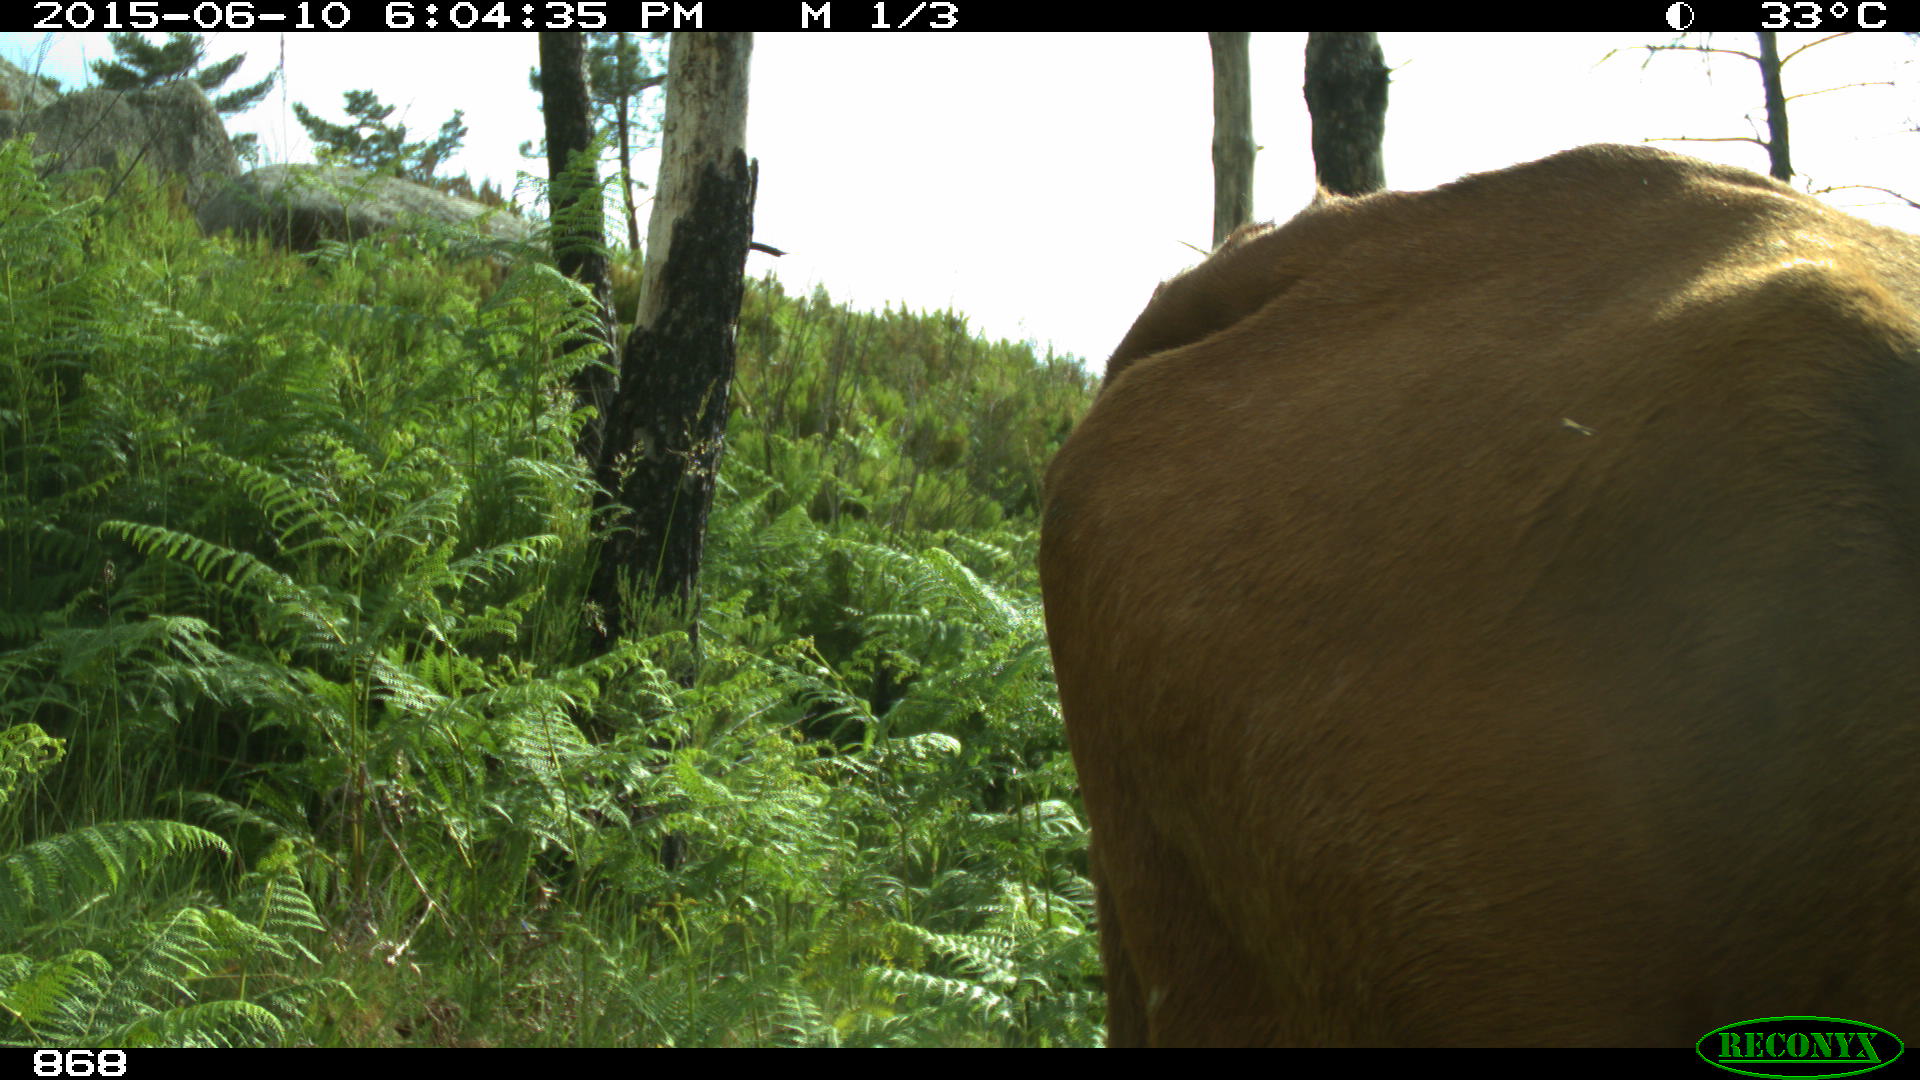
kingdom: Animalia
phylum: Chordata
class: Mammalia
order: Artiodactyla
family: Bovidae
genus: Bos
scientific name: Bos taurus
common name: Domesticated cattle
